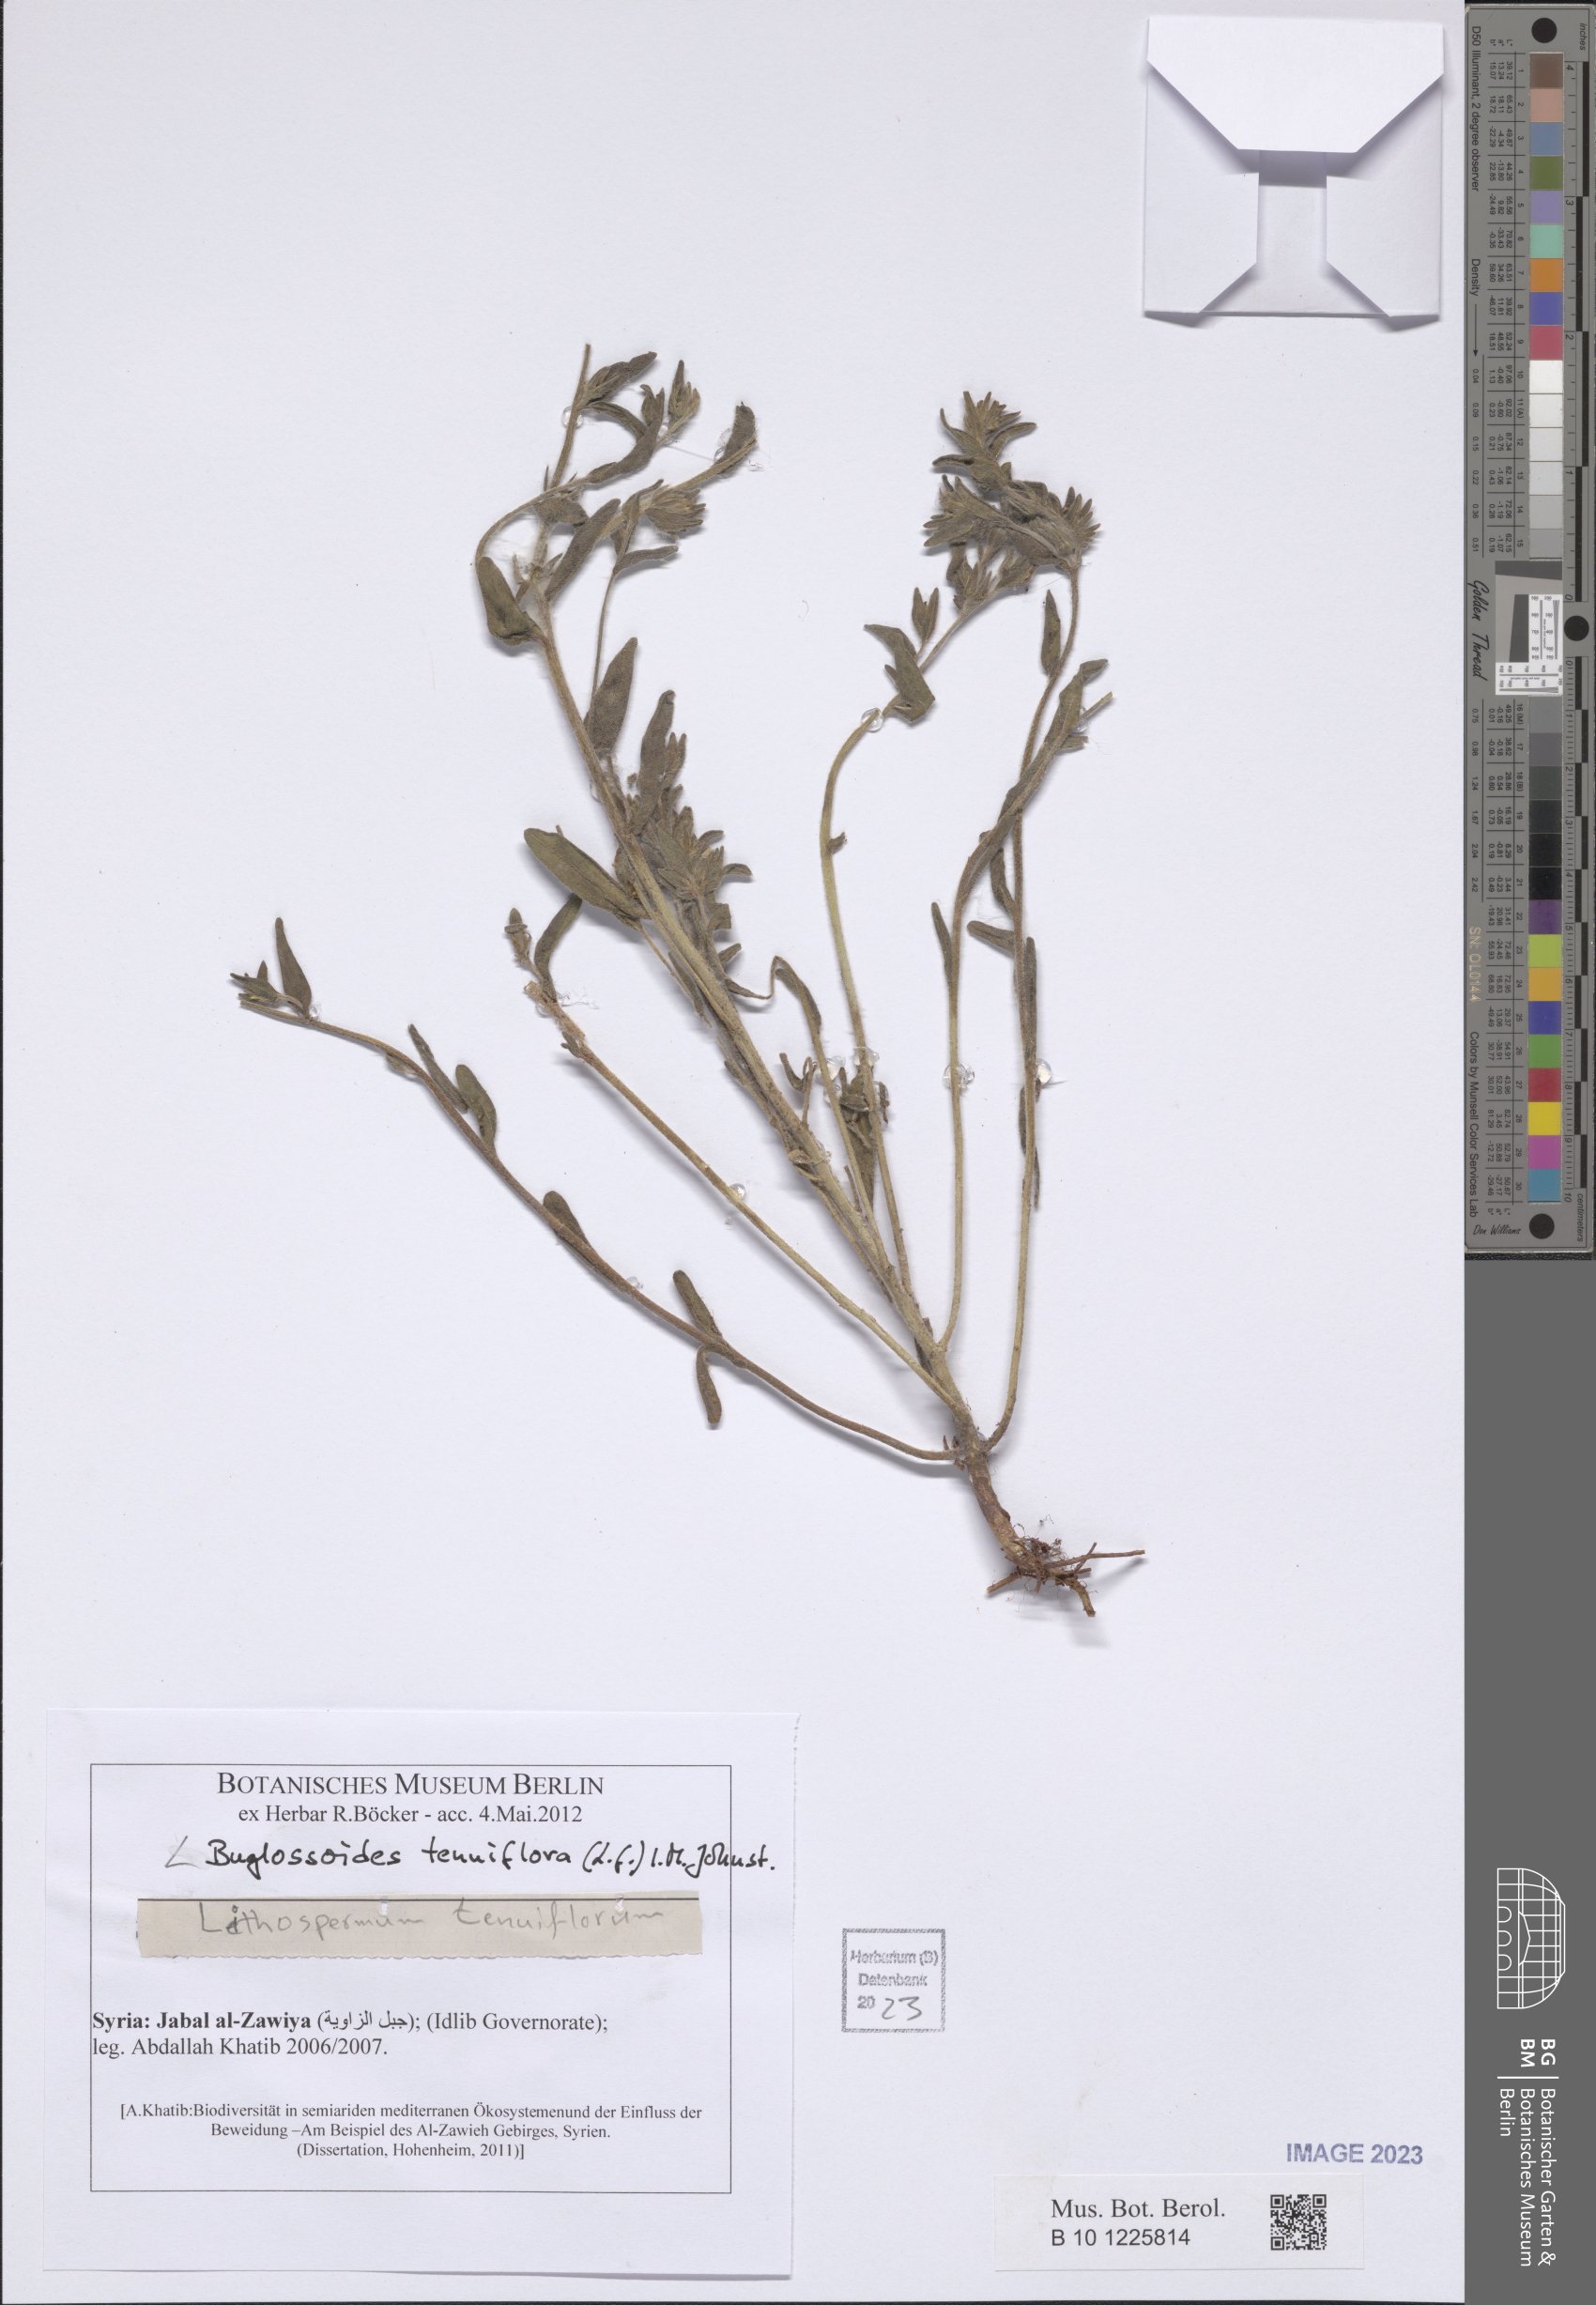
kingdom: Plantae
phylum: Tracheophyta
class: Magnoliopsida
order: Boraginales
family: Boraginaceae
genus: Buglossoides
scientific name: Buglossoides tenuiflora
